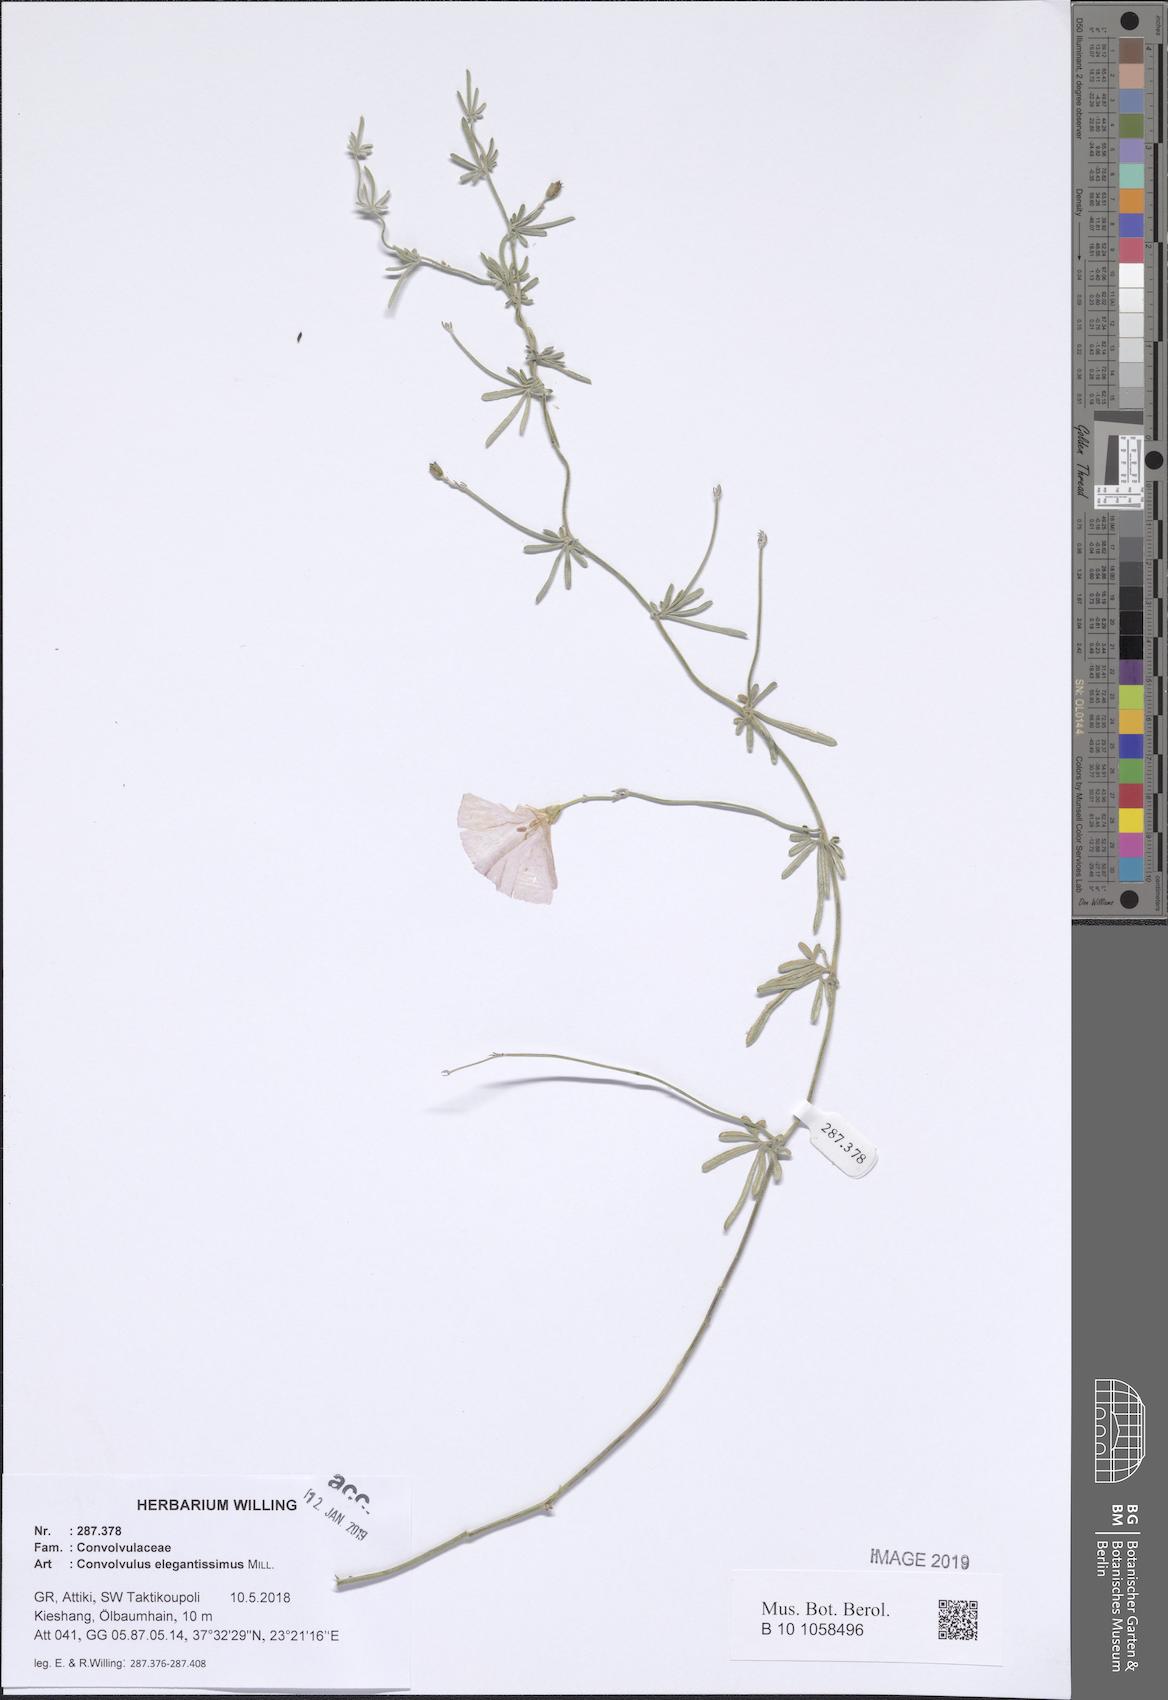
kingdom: Plantae
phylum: Tracheophyta
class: Magnoliopsida
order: Solanales
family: Convolvulaceae
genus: Convolvulus
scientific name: Convolvulus elegantissimus
